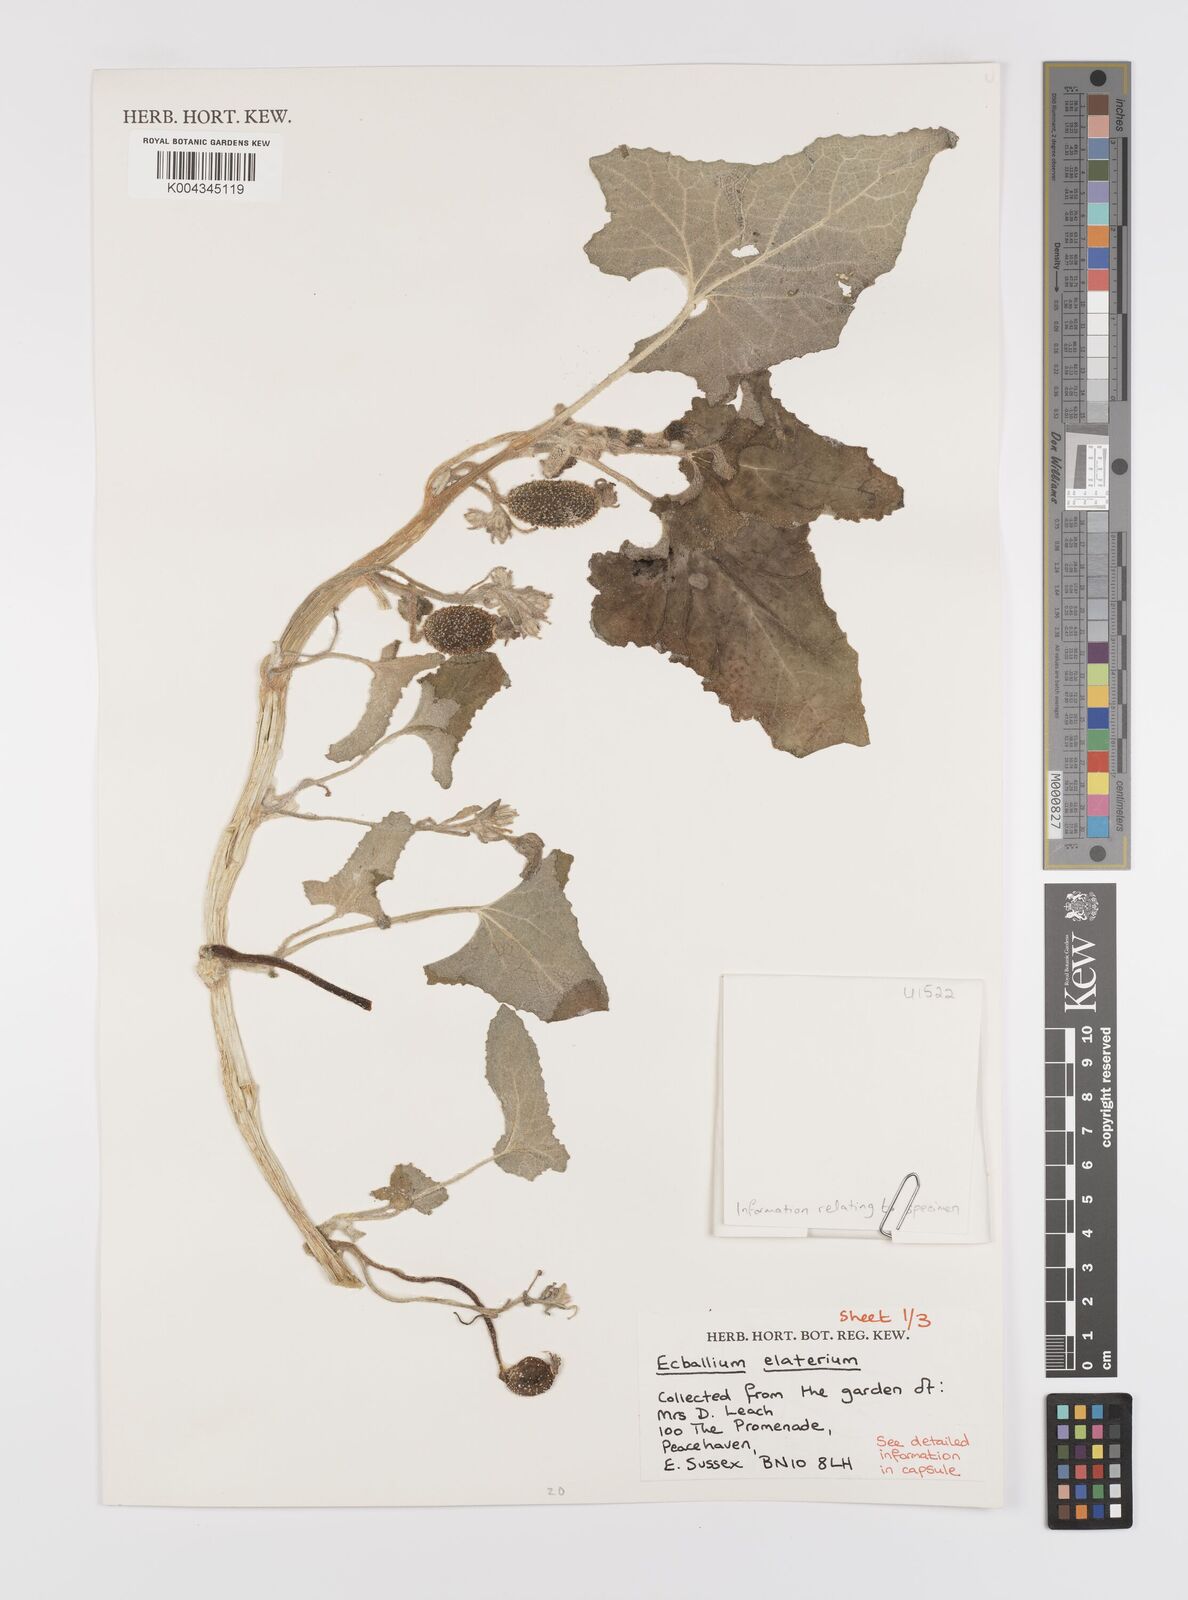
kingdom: Plantae
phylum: Tracheophyta
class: Magnoliopsida
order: Cucurbitales
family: Cucurbitaceae
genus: Ecballium
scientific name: Ecballium elaterium
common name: Squirting cucumber
